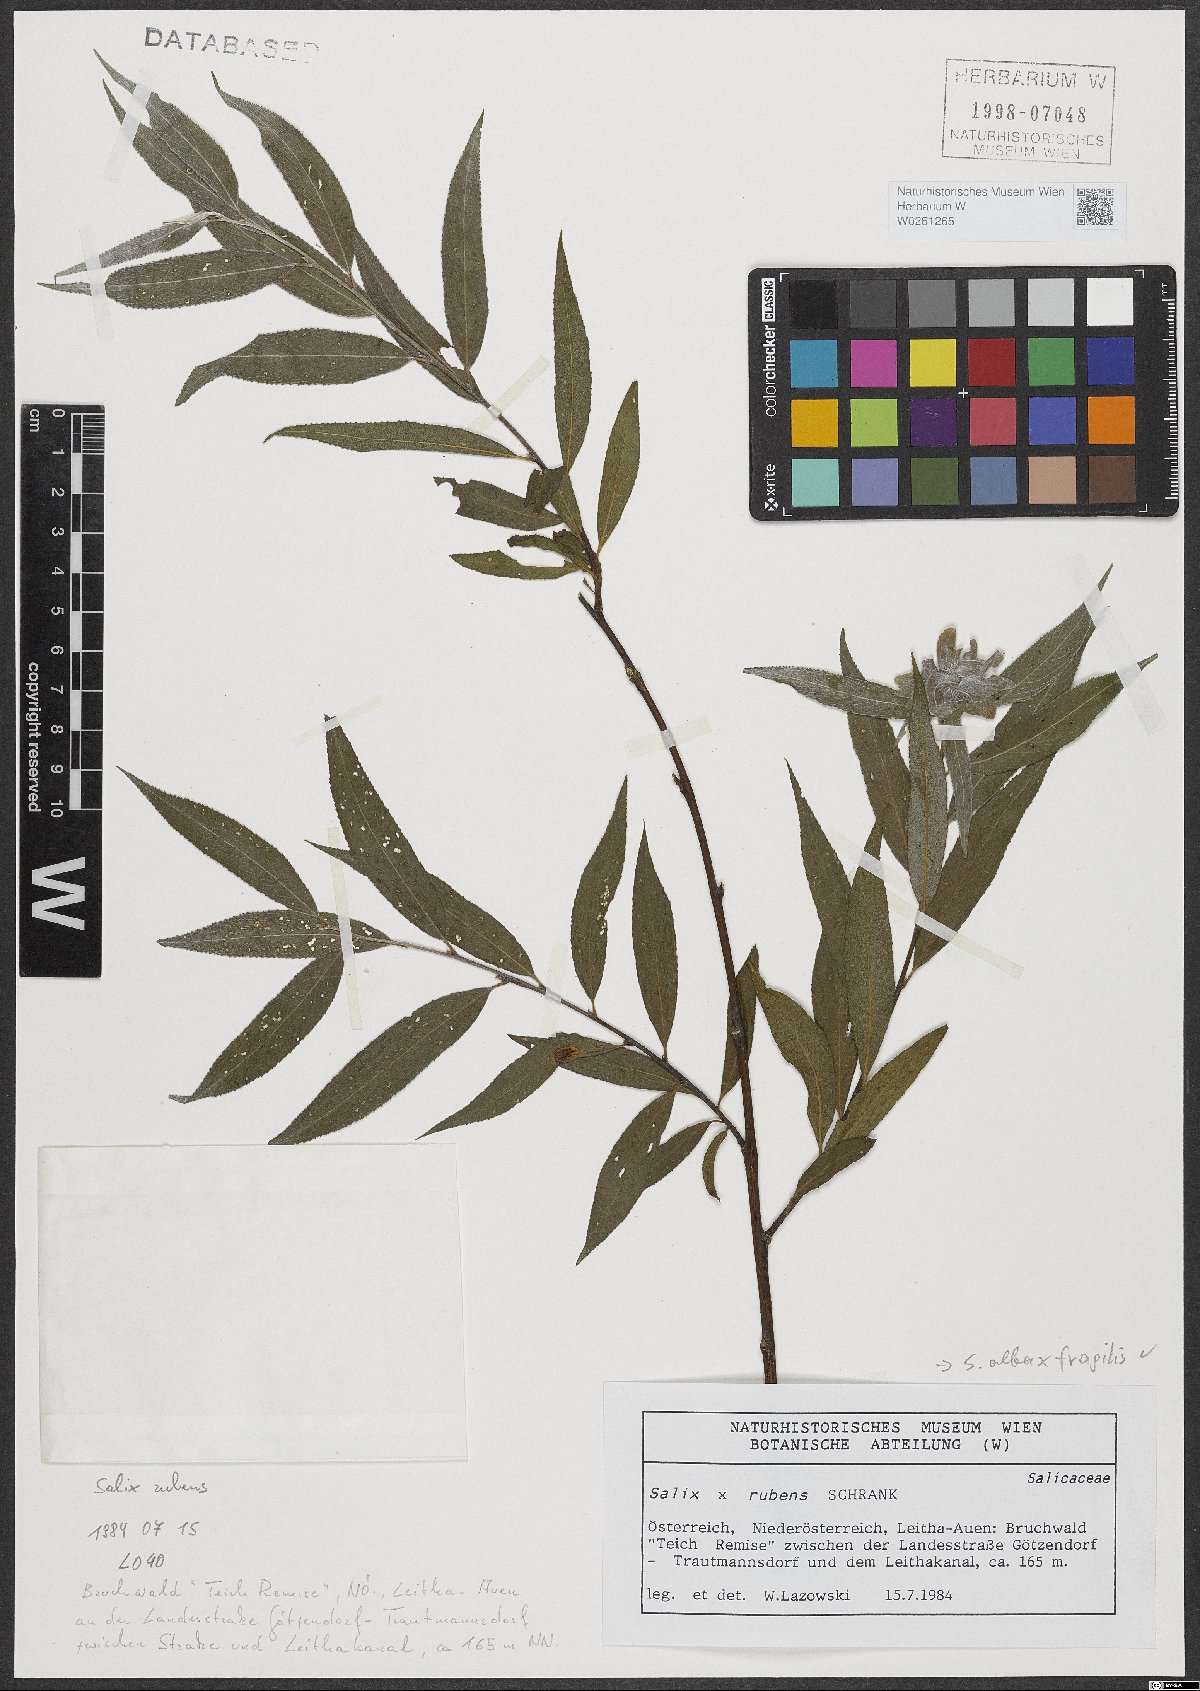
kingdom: Plantae
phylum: Tracheophyta
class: Magnoliopsida
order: Malpighiales
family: Salicaceae
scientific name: Salicaceae
